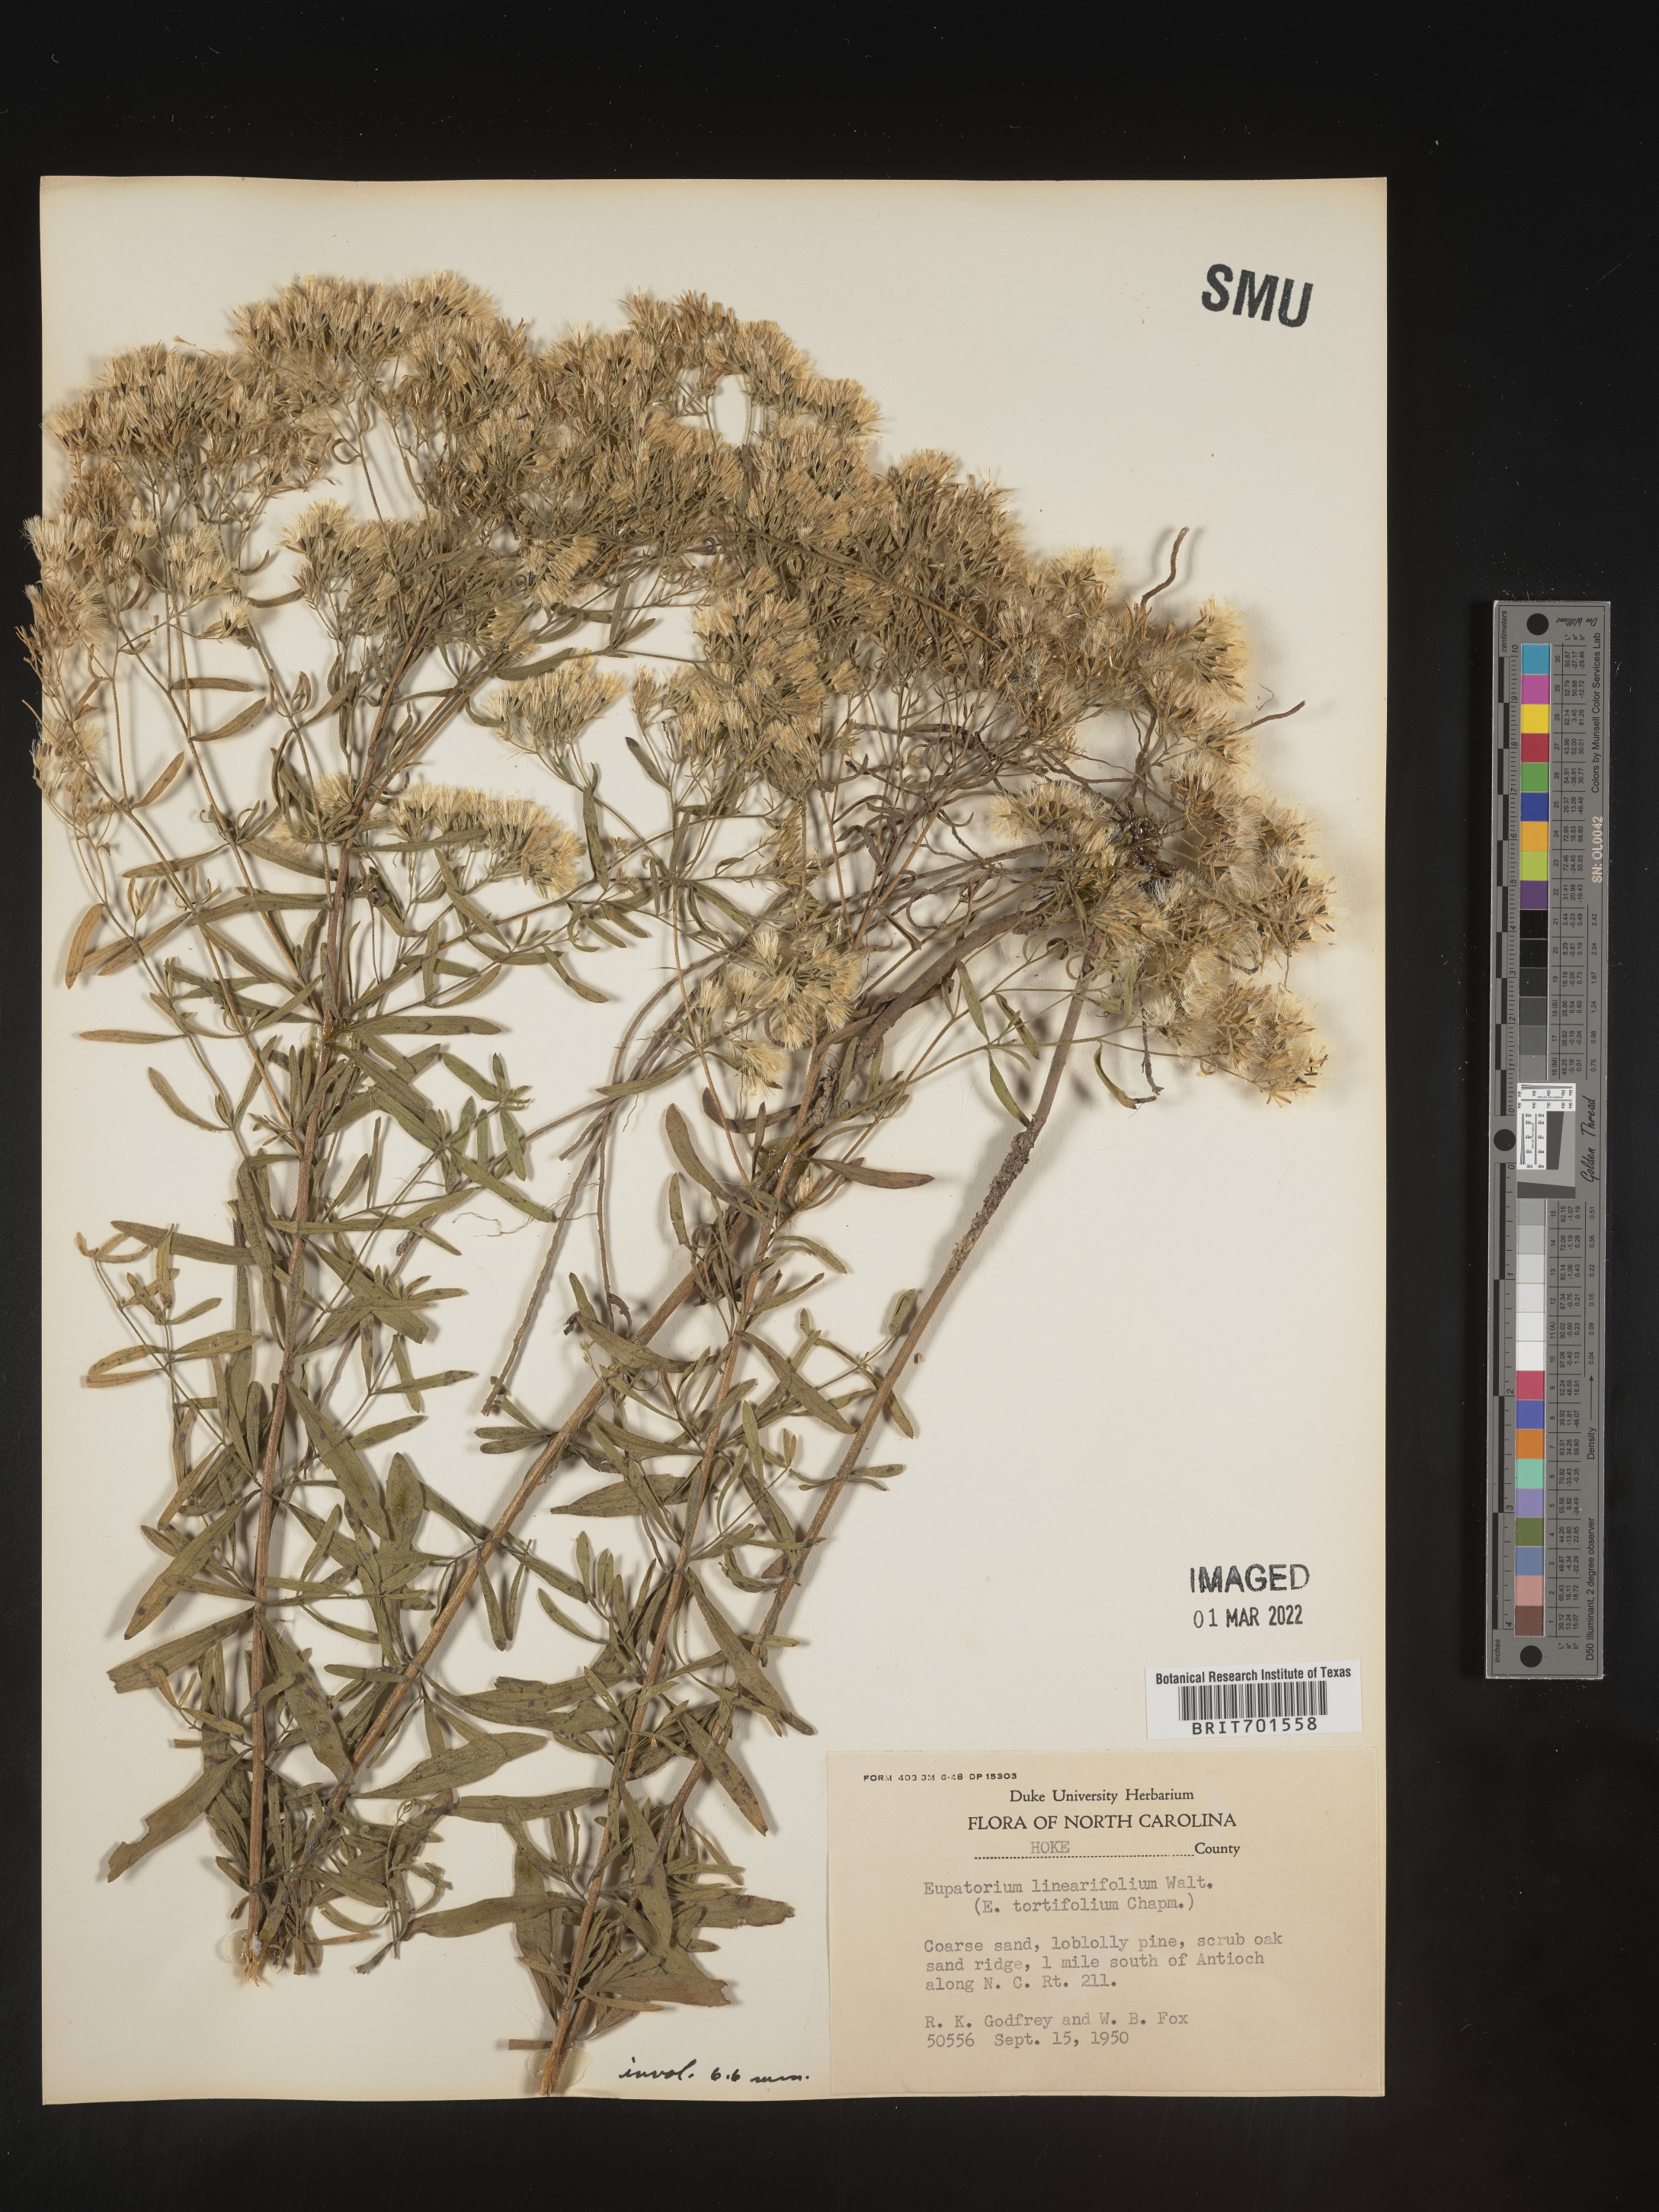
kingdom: Plantae
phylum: Tracheophyta
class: Magnoliopsida
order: Asterales
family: Asteraceae
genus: Eupatorium
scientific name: Eupatorium linearifolium
